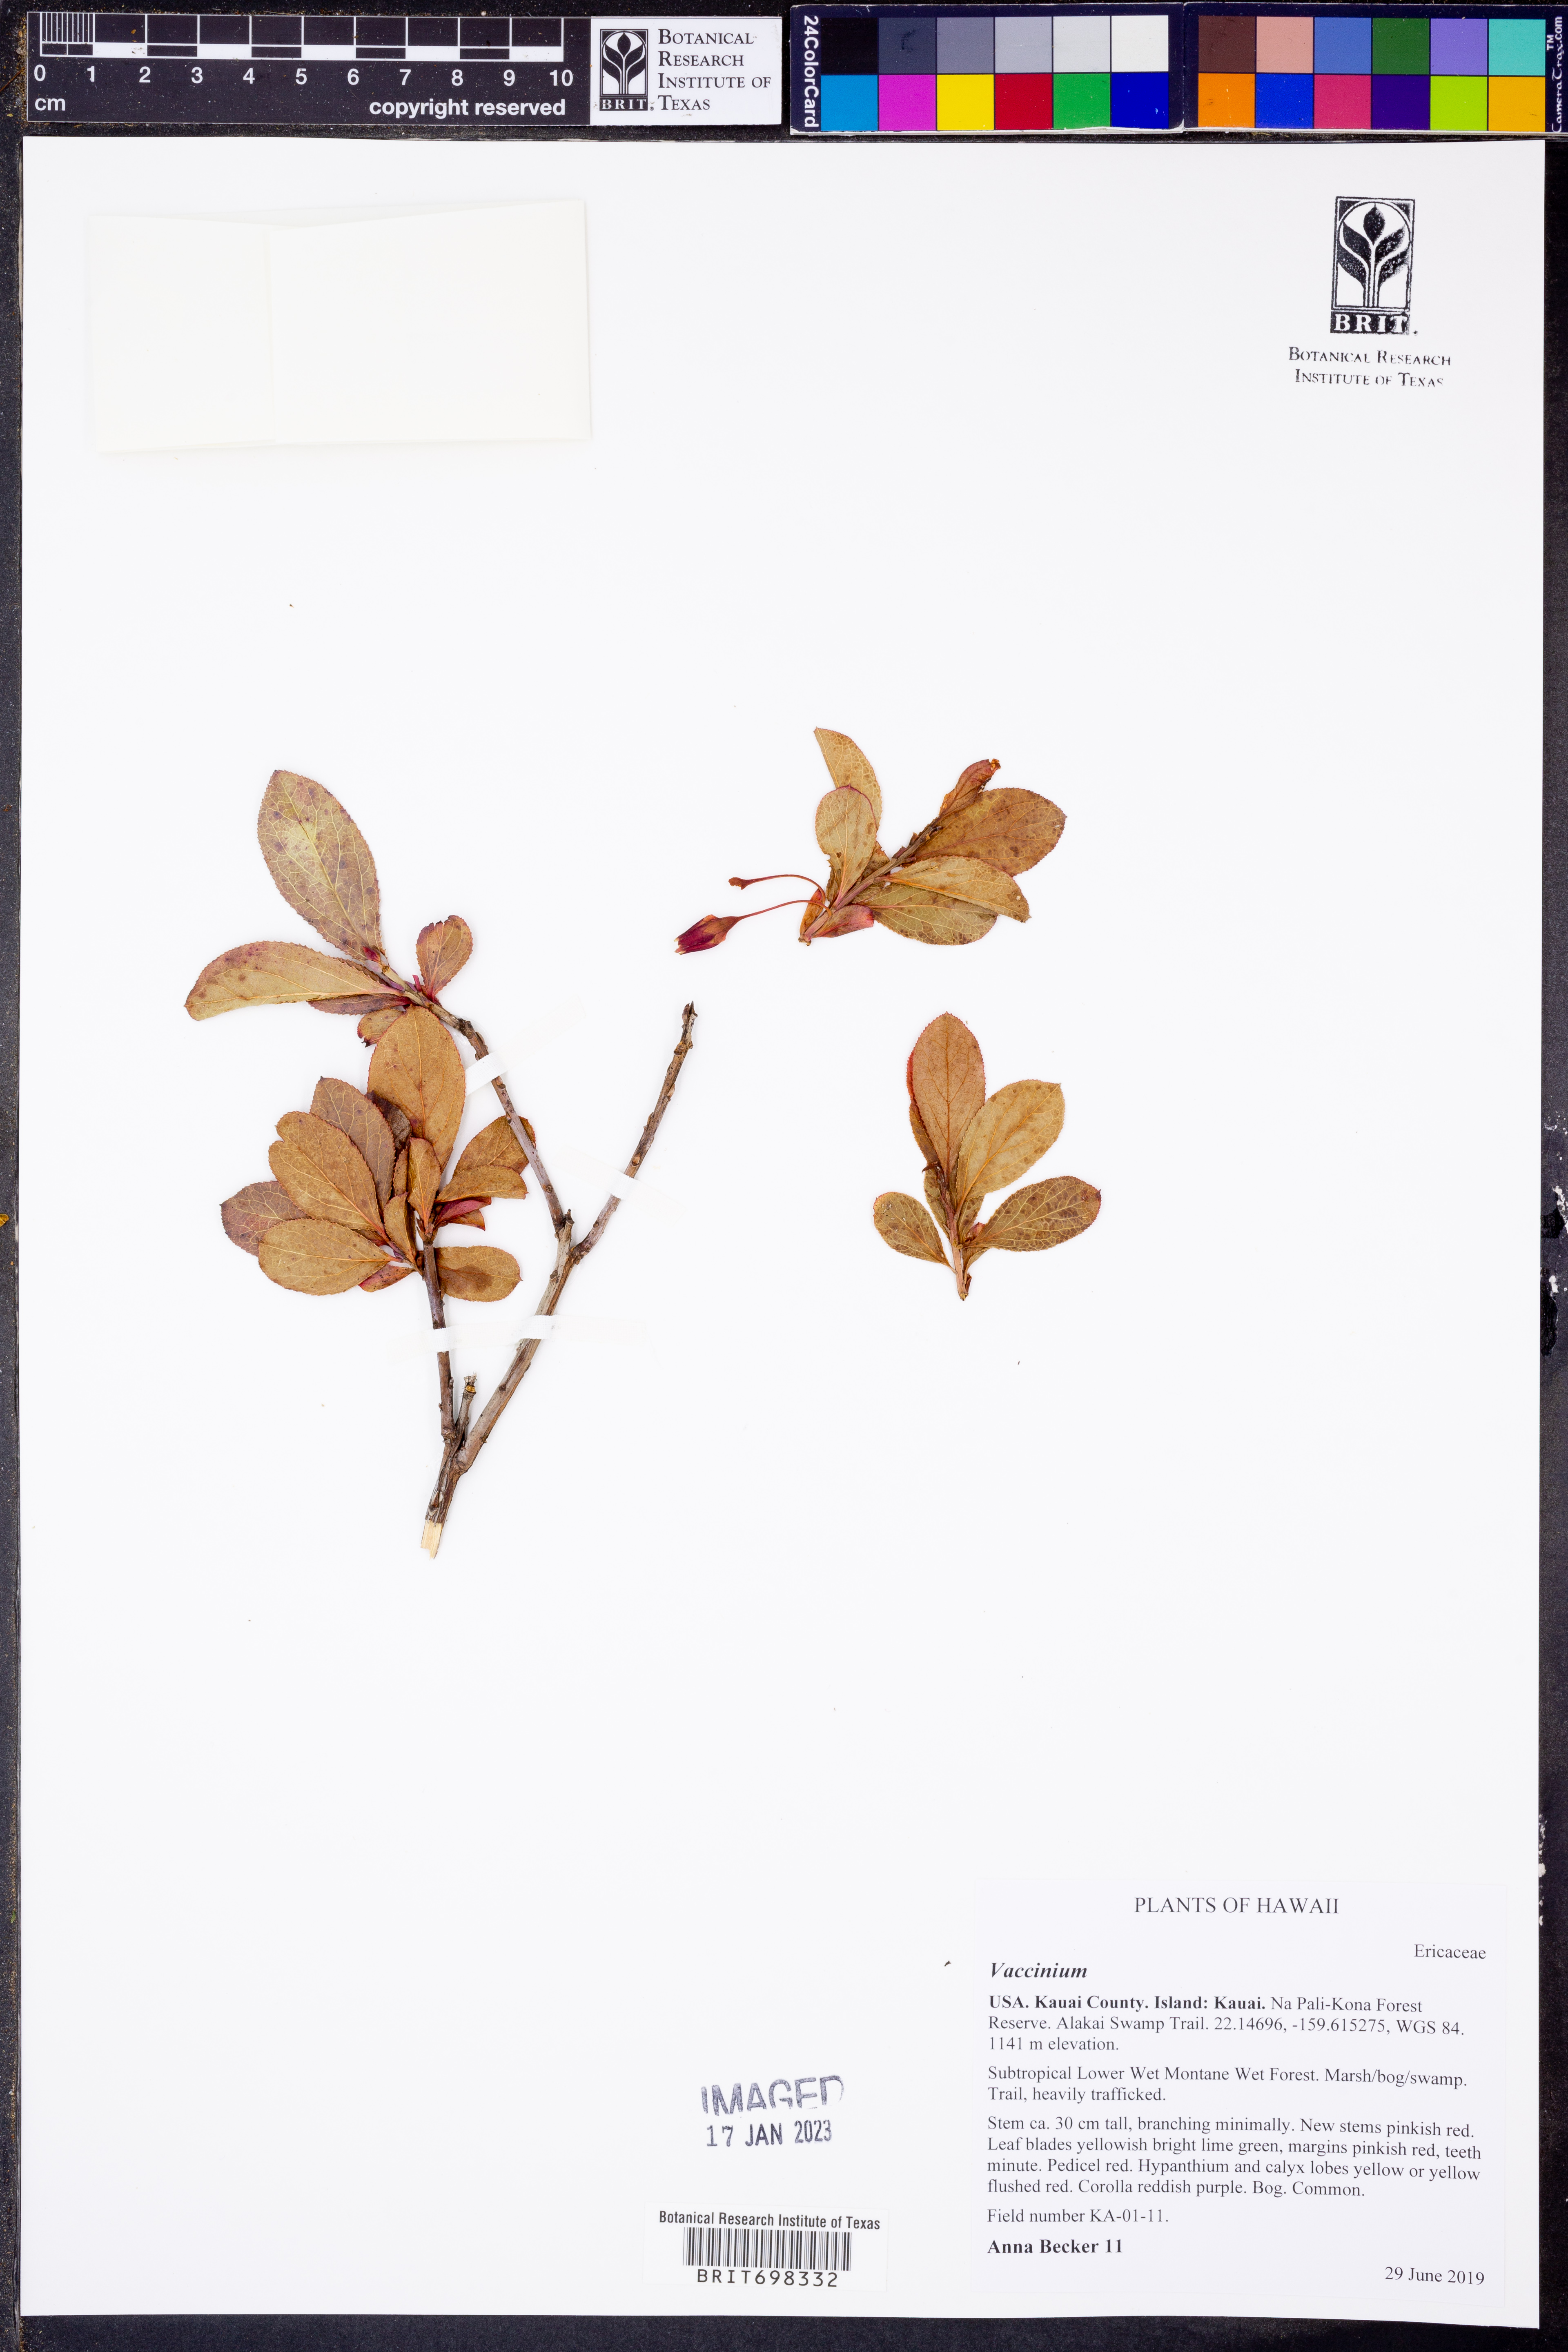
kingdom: Plantae
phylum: Tracheophyta
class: Magnoliopsida
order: Ericales
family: Ericaceae
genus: Vaccinium
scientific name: Vaccinium
